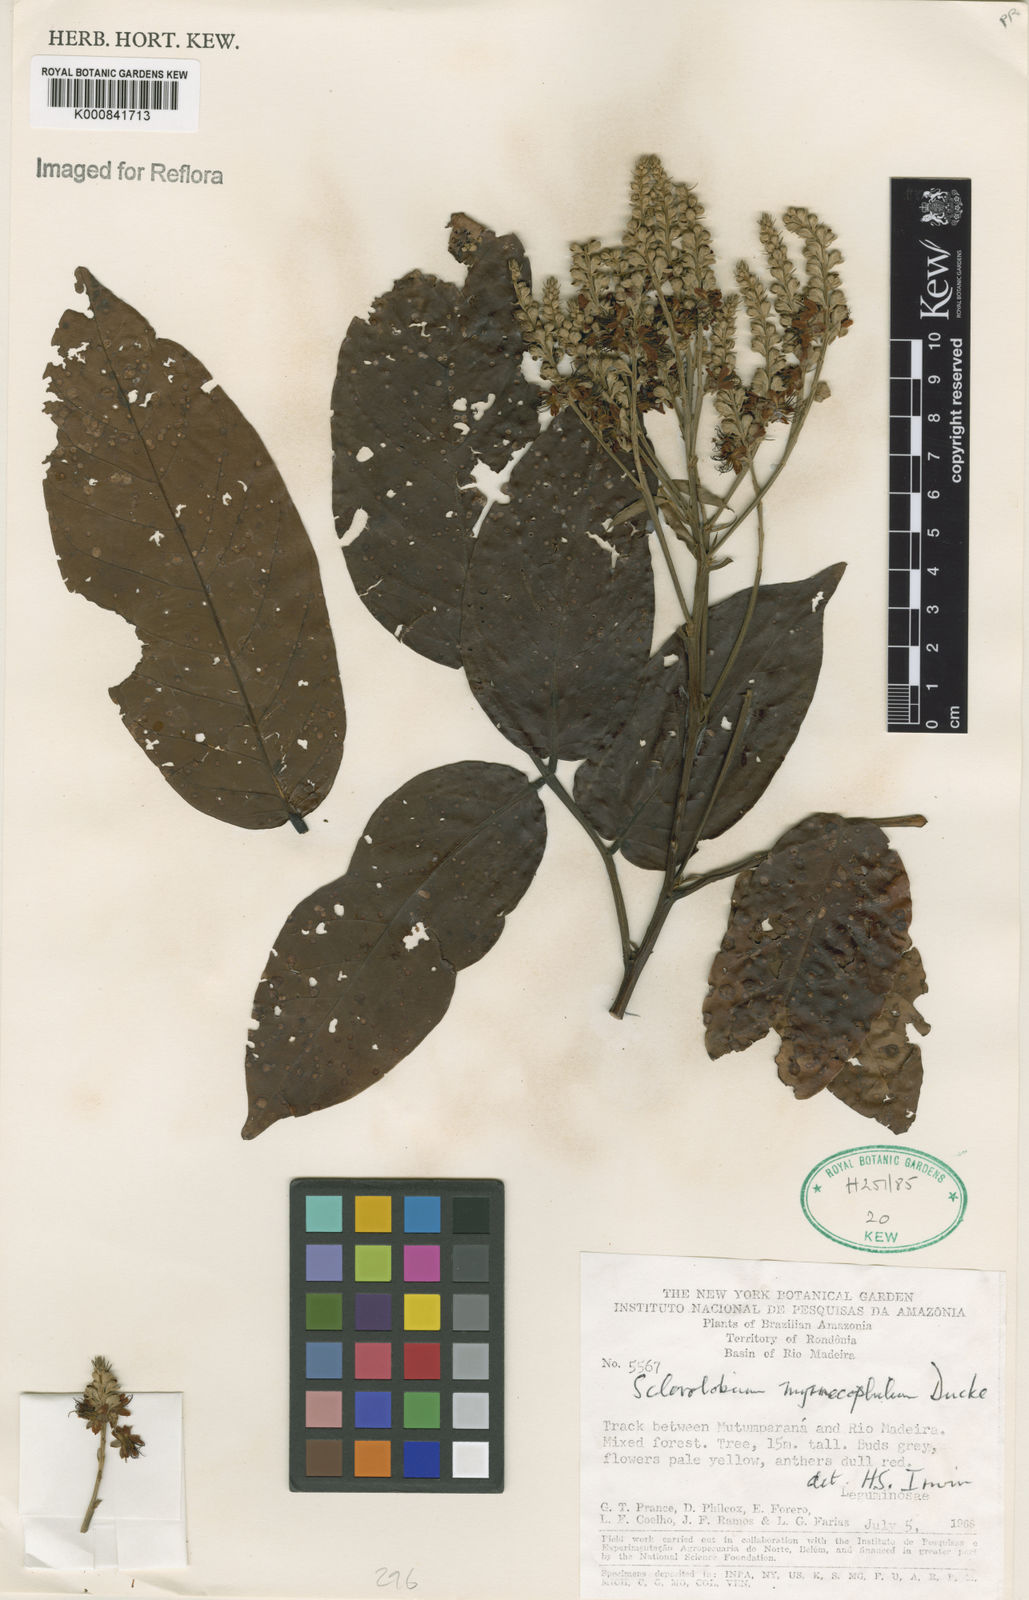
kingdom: Plantae
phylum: Tracheophyta
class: Magnoliopsida
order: Fabales
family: Fabaceae
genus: Tachigali
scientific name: Tachigali glauca
